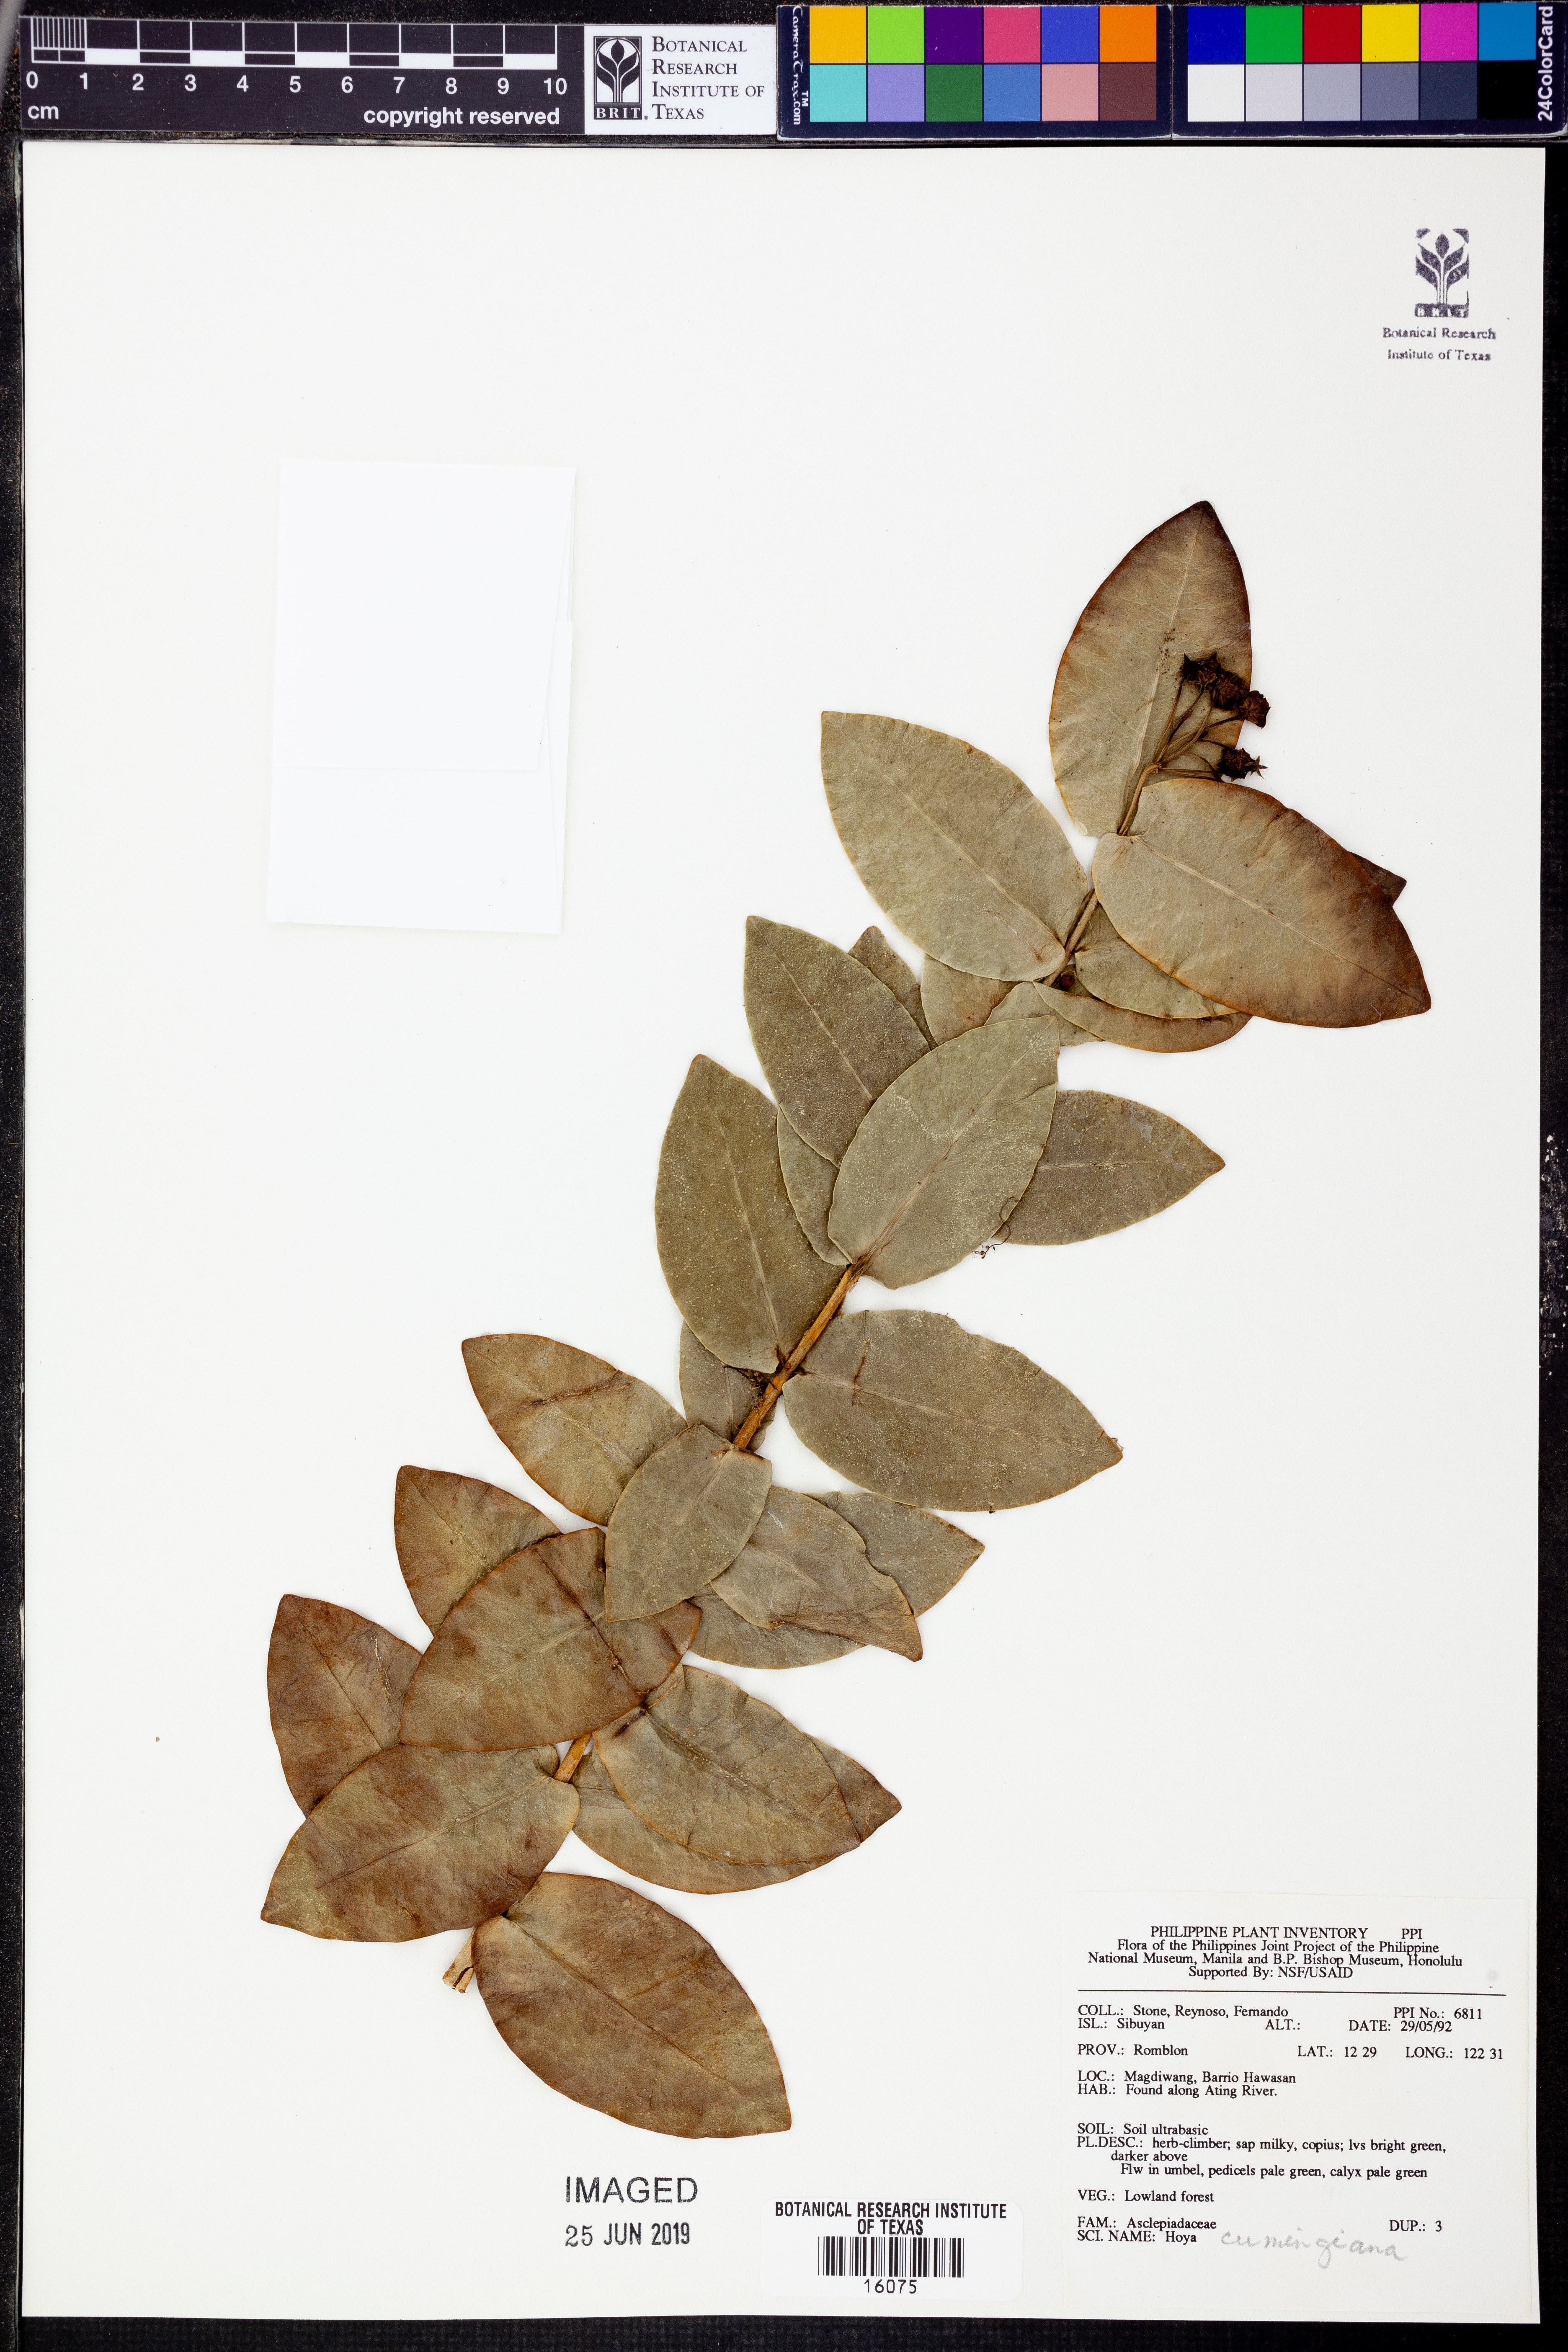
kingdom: Plantae
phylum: Tracheophyta
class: Magnoliopsida
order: Gentianales
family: Apocynaceae
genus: Hoya
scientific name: Hoya cumingiana
